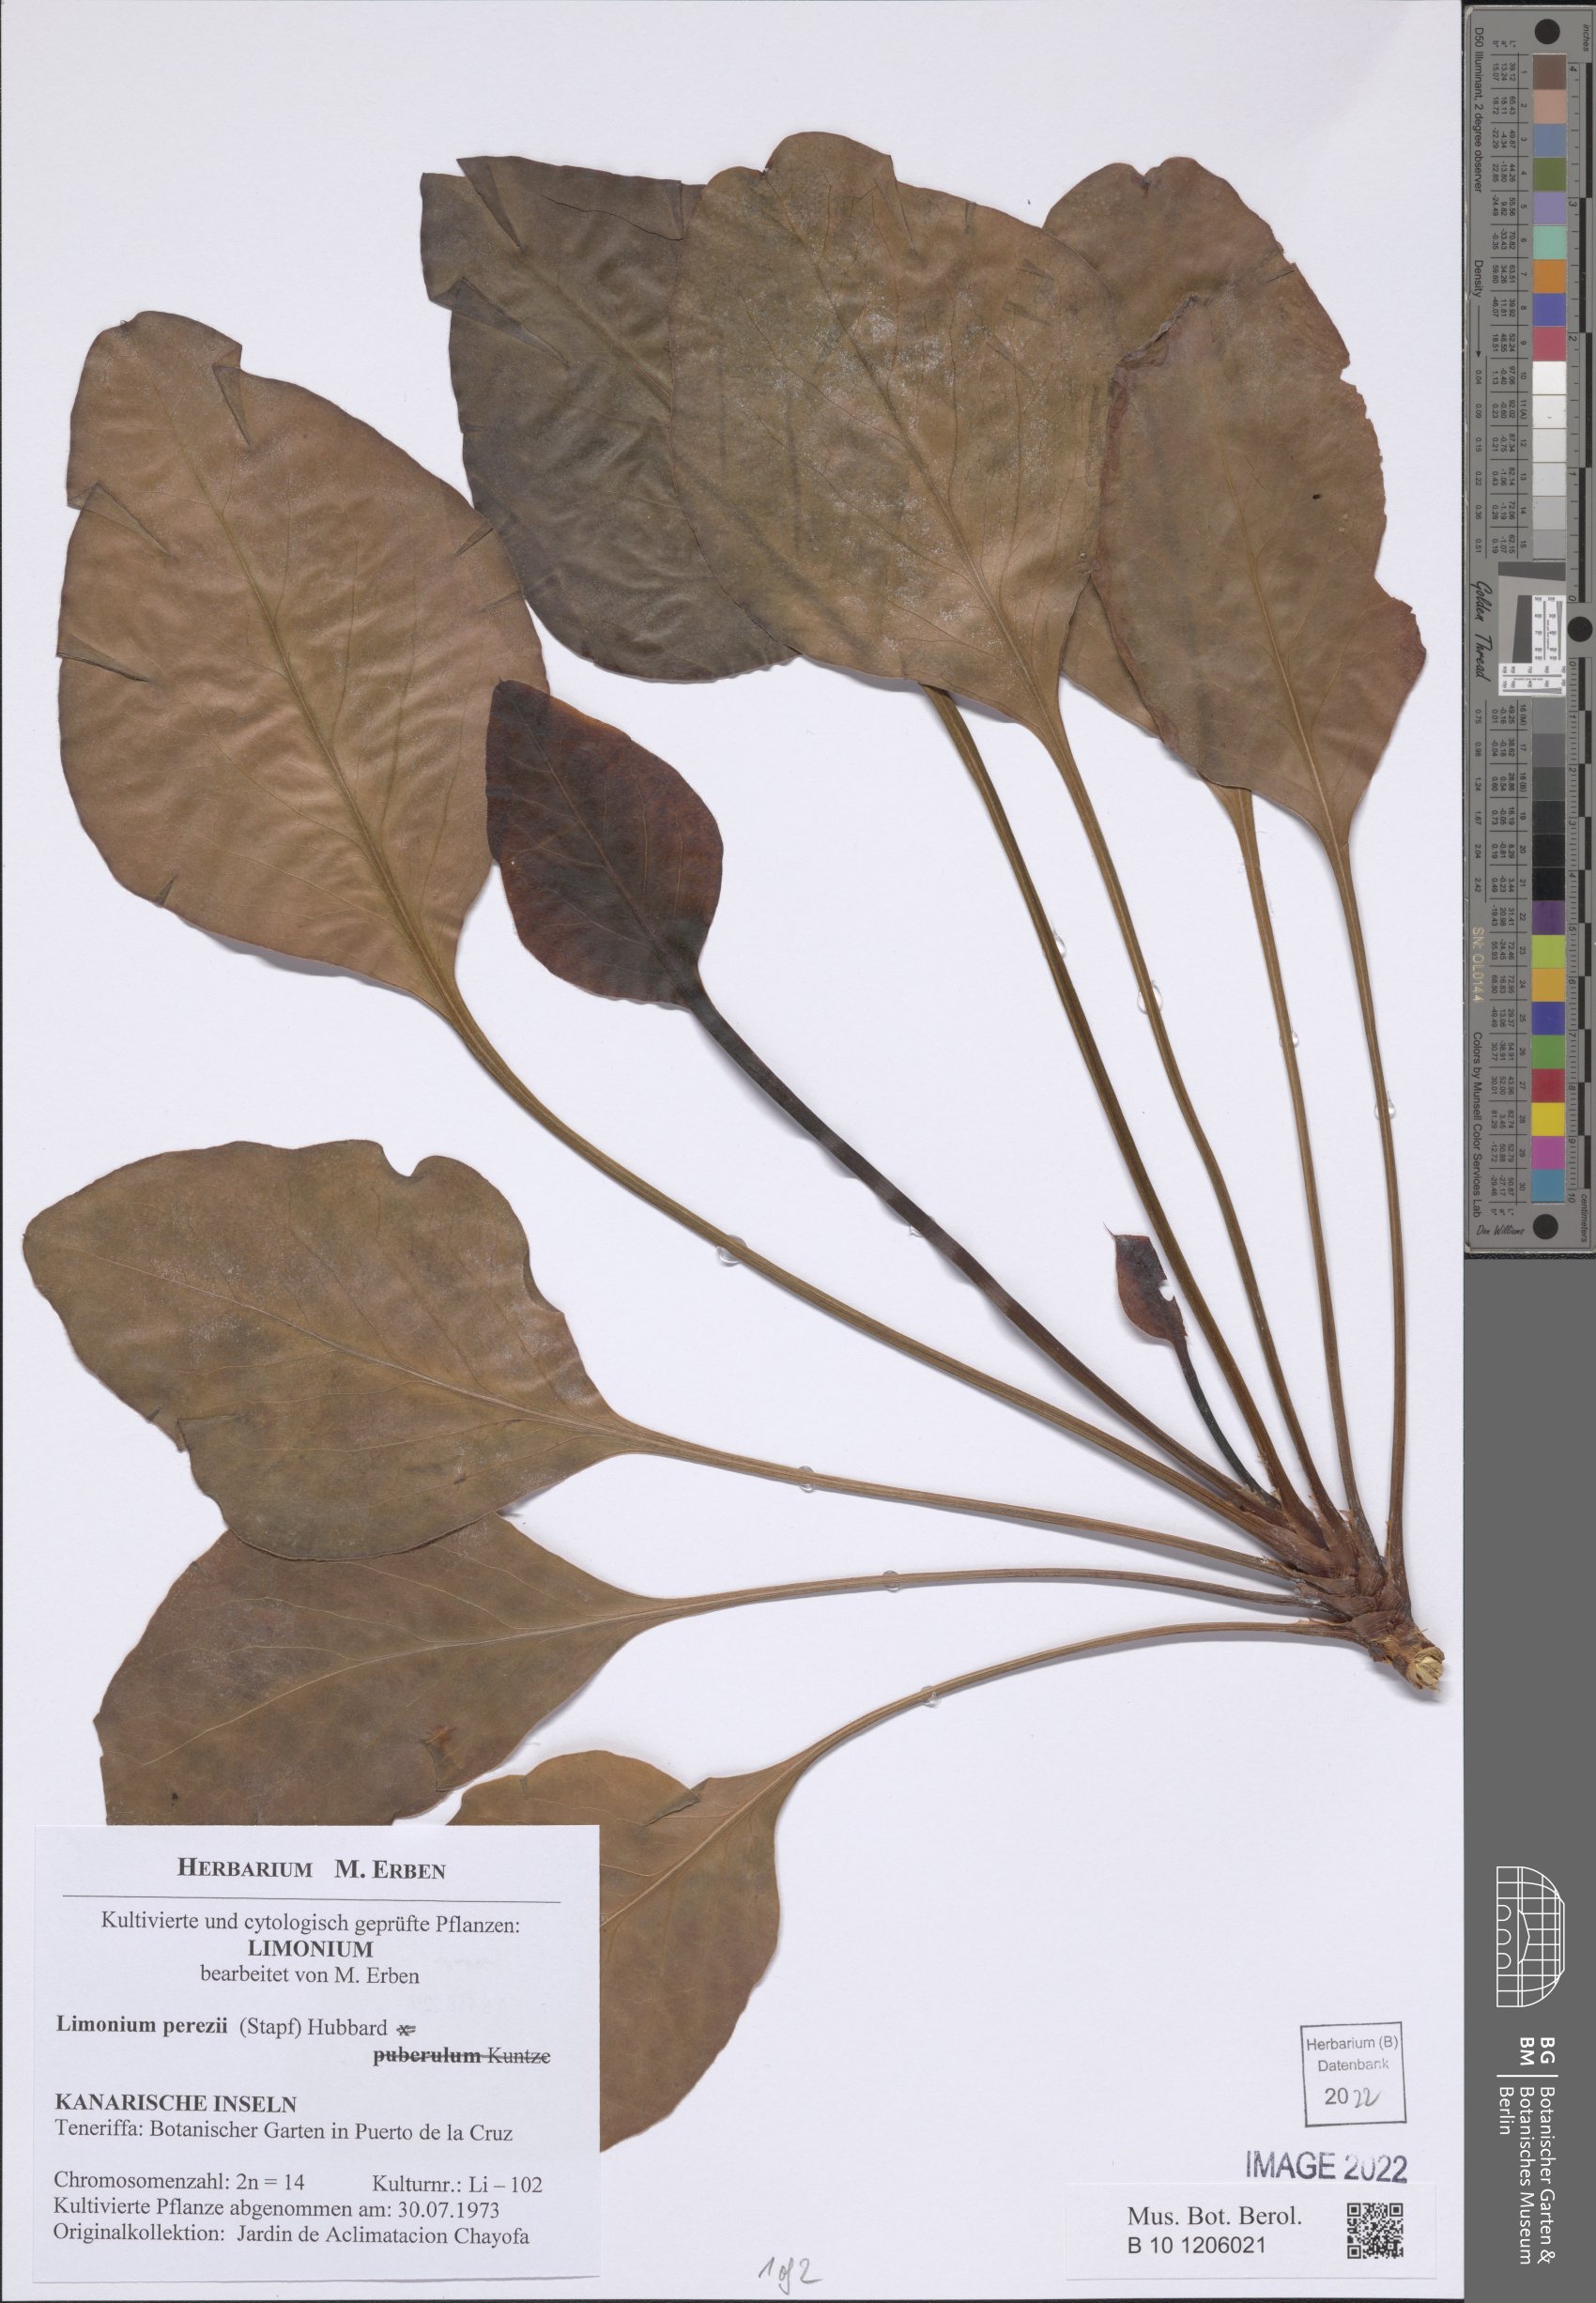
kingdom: Plantae
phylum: Tracheophyta
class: Magnoliopsida
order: Caryophyllales
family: Plumbaginaceae
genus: Limonium
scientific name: Limonium perezii
